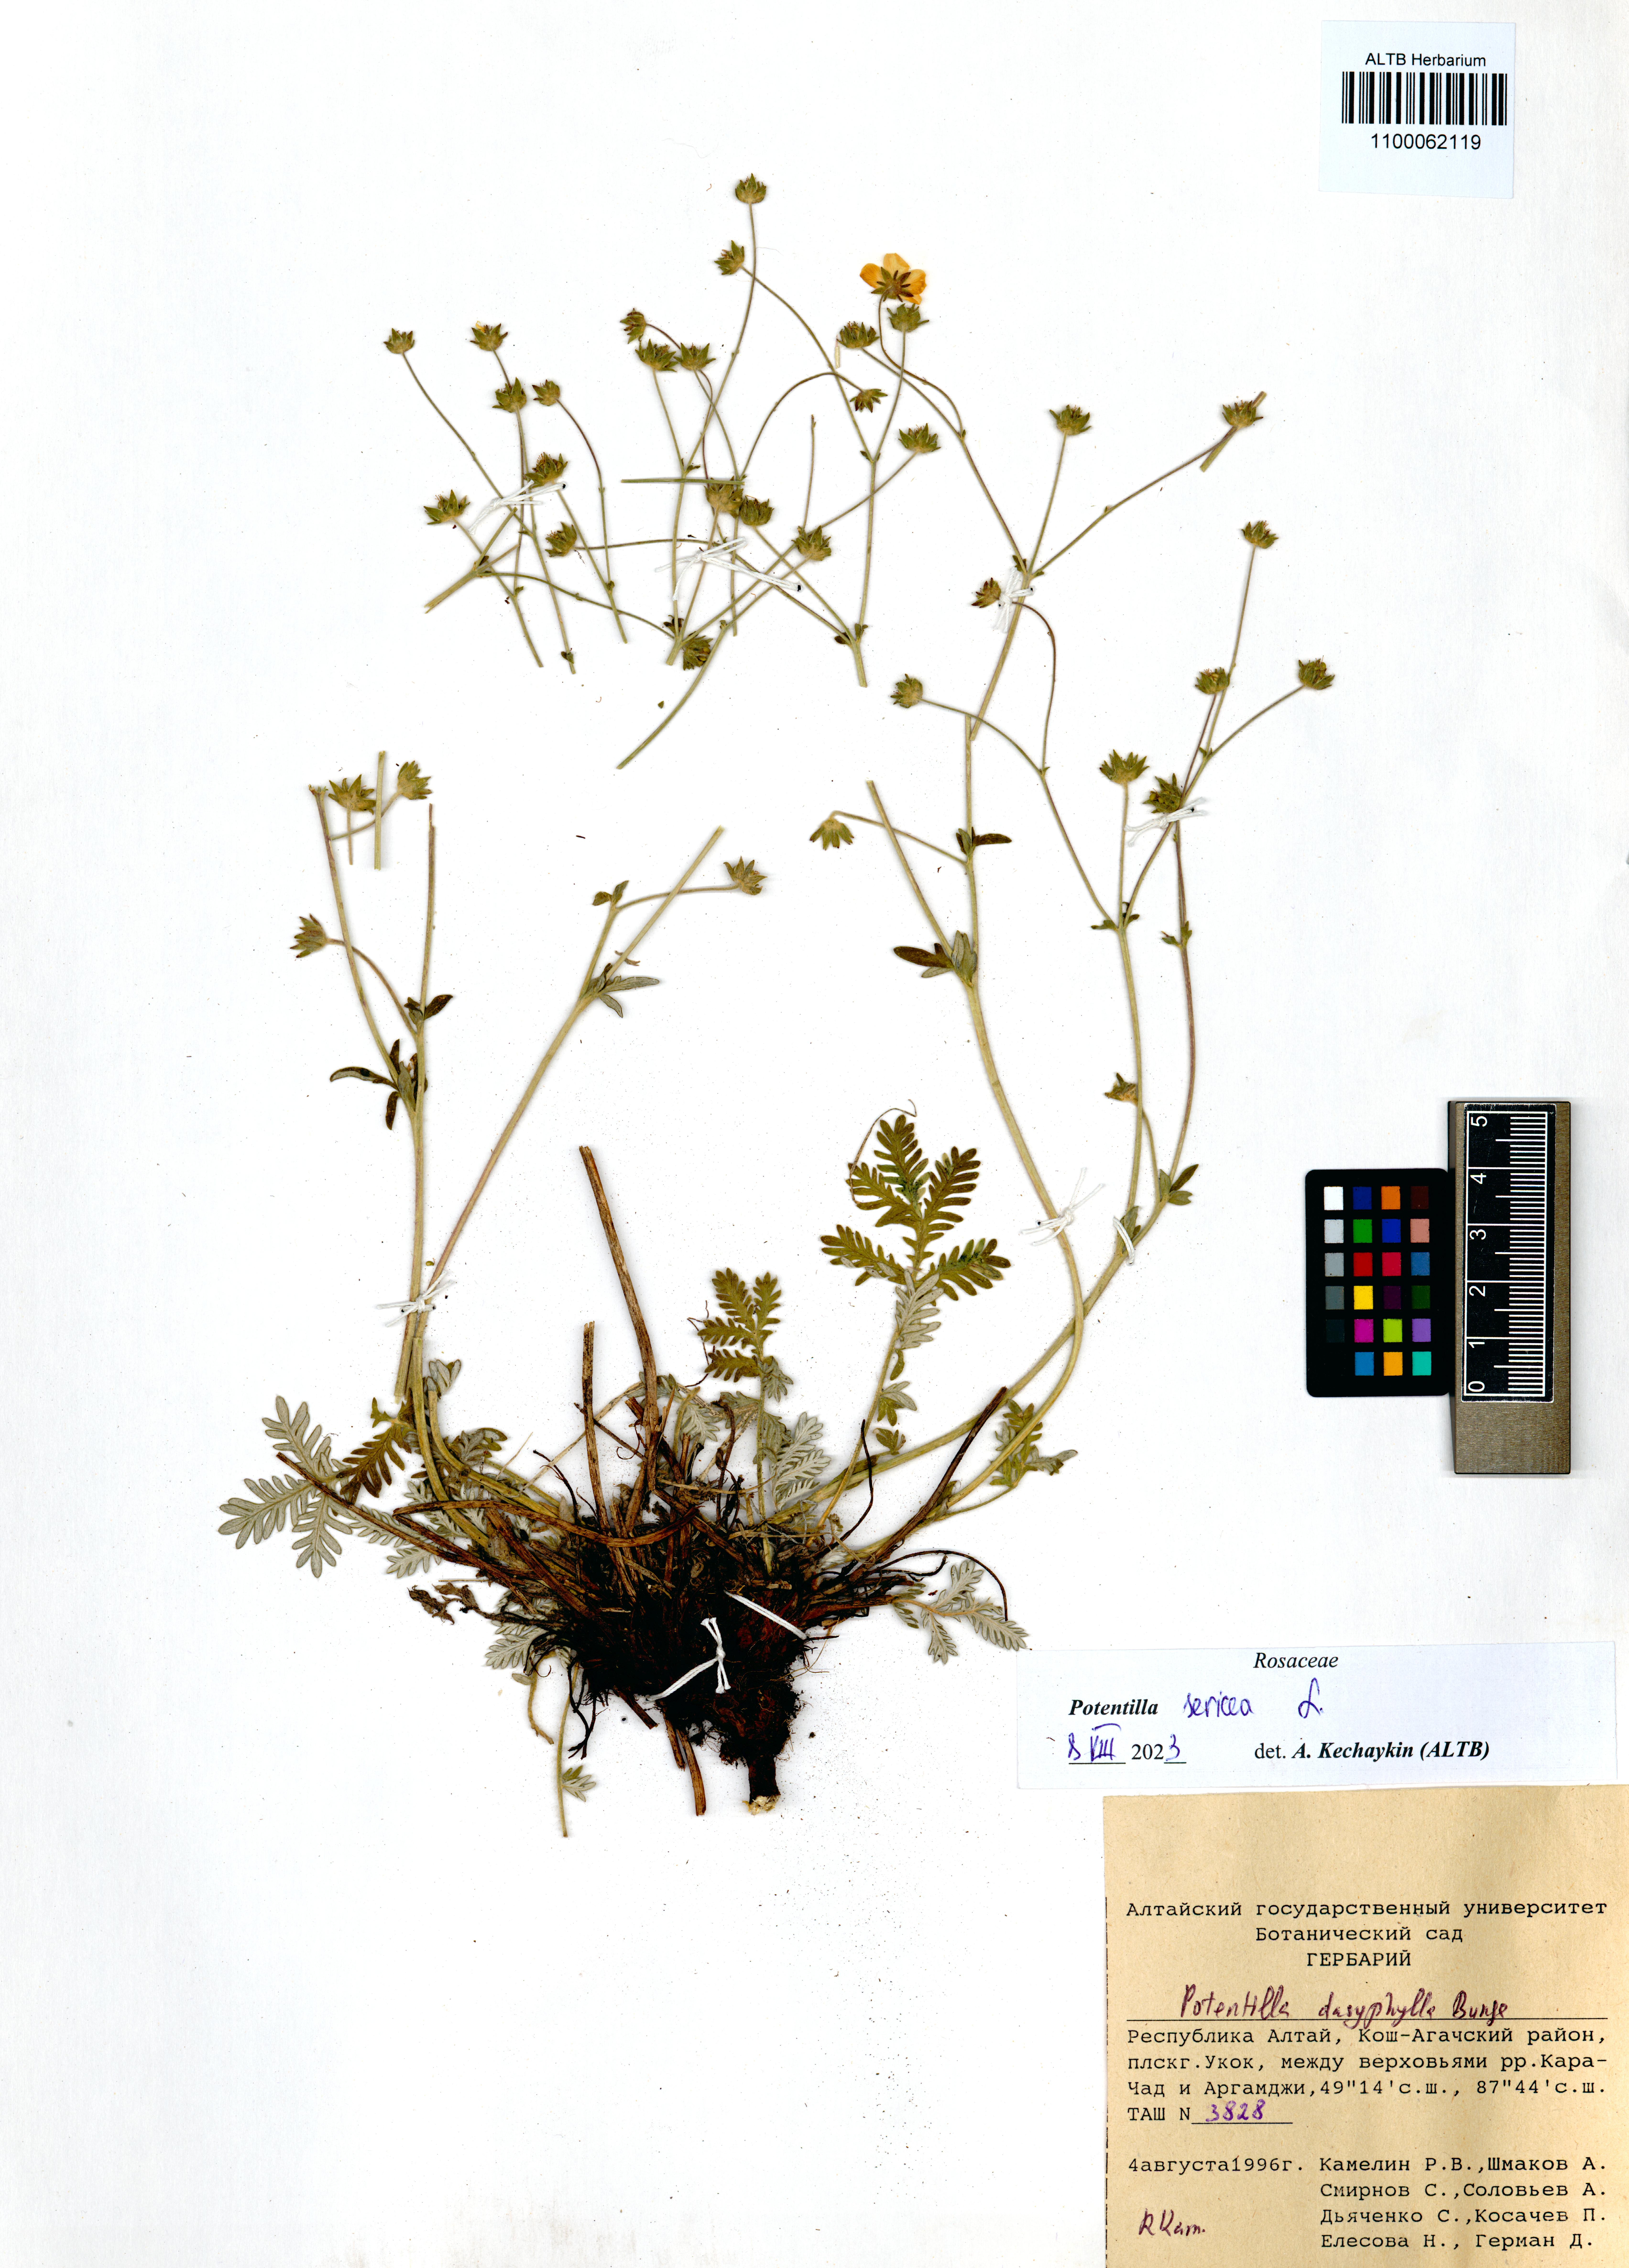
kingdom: Plantae
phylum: Tracheophyta
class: Magnoliopsida
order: Rosales
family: Rosaceae
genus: Potentilla
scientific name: Potentilla sericea
